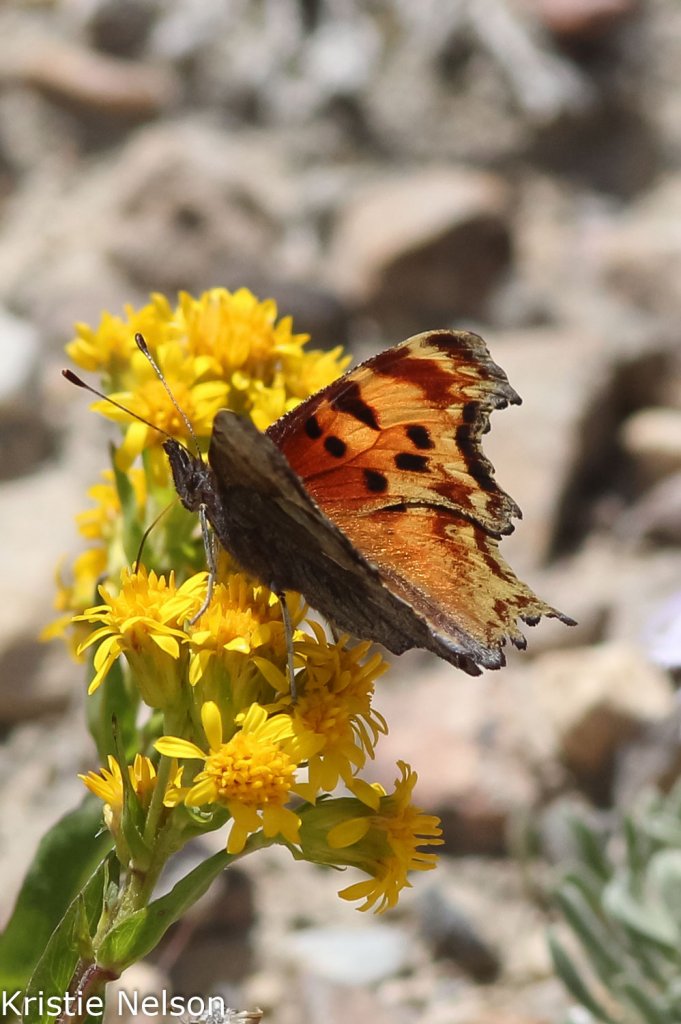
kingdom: Animalia
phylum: Arthropoda
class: Insecta
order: Lepidoptera
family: Nymphalidae
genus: Polygonia
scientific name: Polygonia gracilis
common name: Hoary Comma
